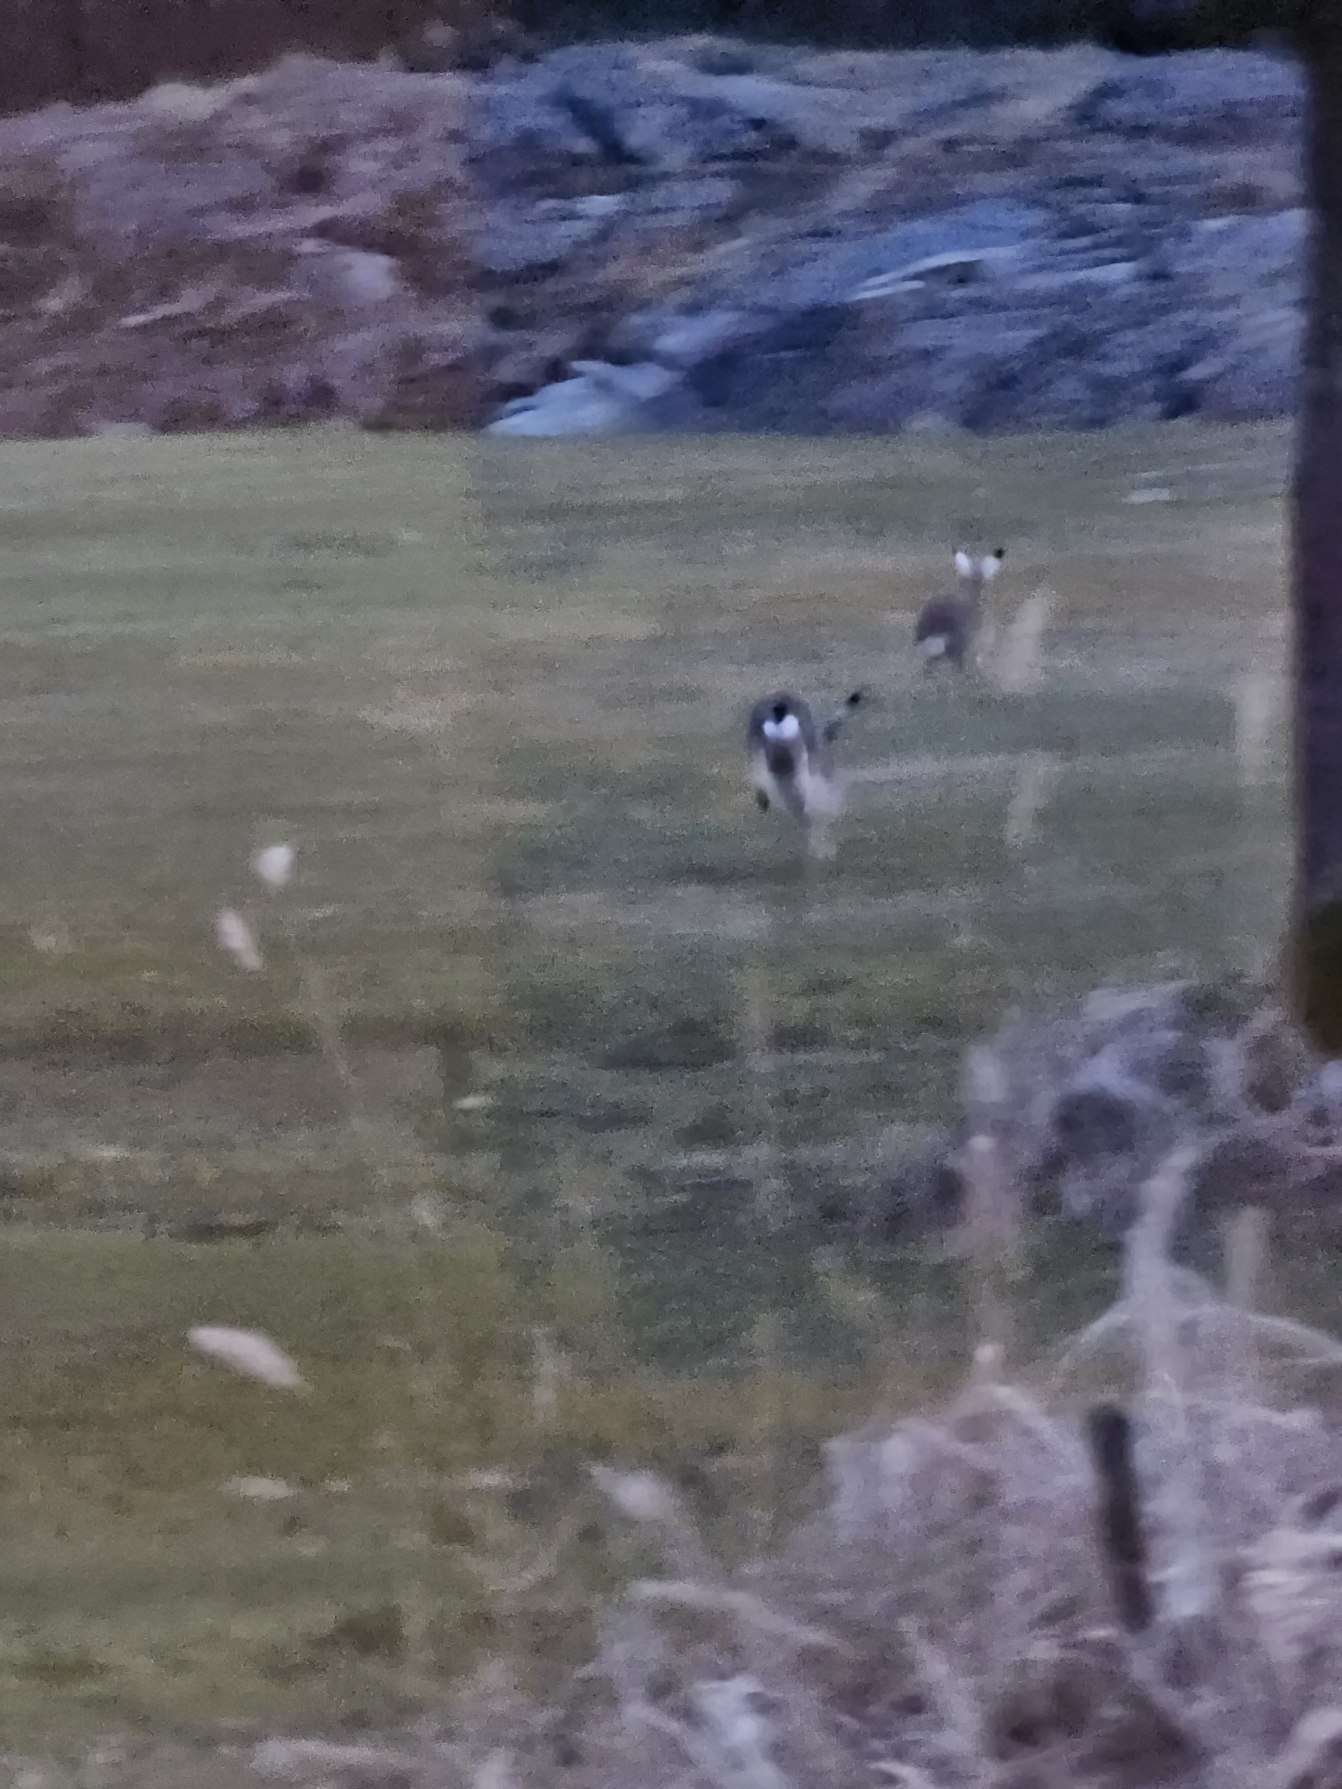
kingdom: Animalia
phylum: Chordata
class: Mammalia
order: Lagomorpha
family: Leporidae
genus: Lepus
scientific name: Lepus europaeus
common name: Hare
